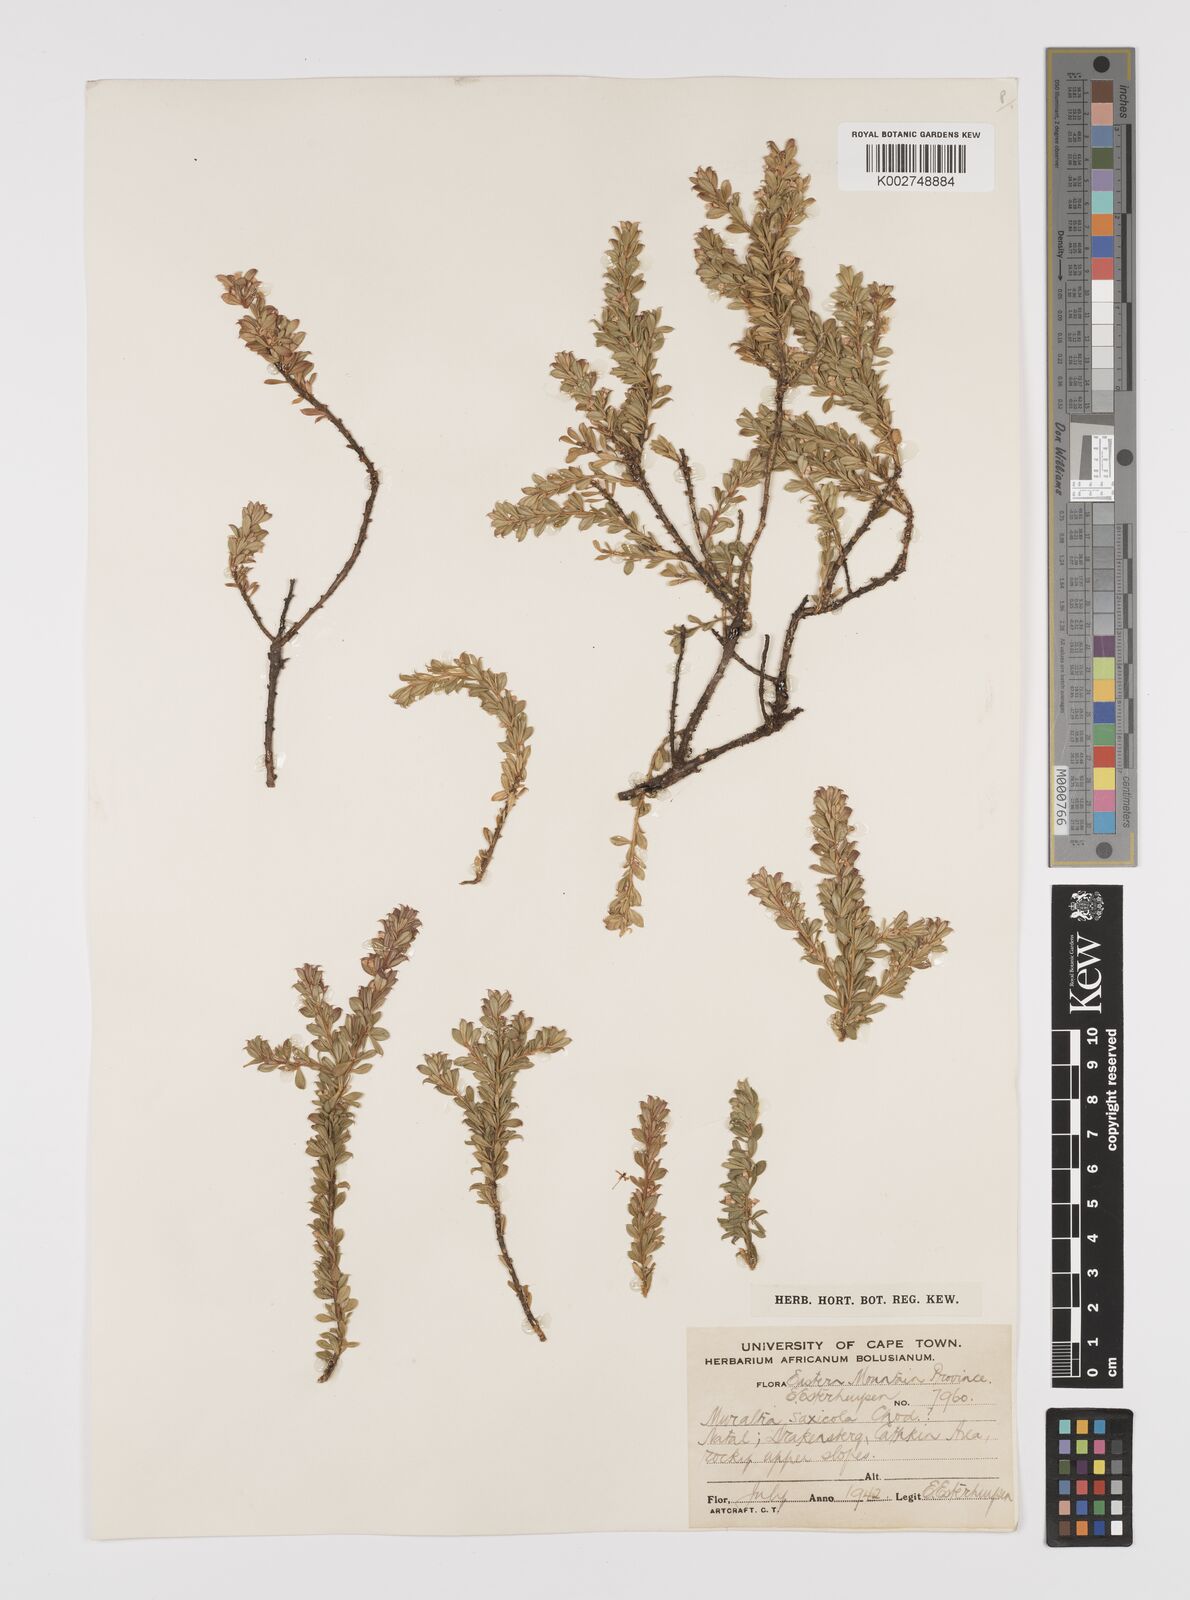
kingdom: Plantae
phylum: Tracheophyta
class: Magnoliopsida
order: Fabales
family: Polygalaceae
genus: Muraltia
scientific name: Muraltia saxicola
